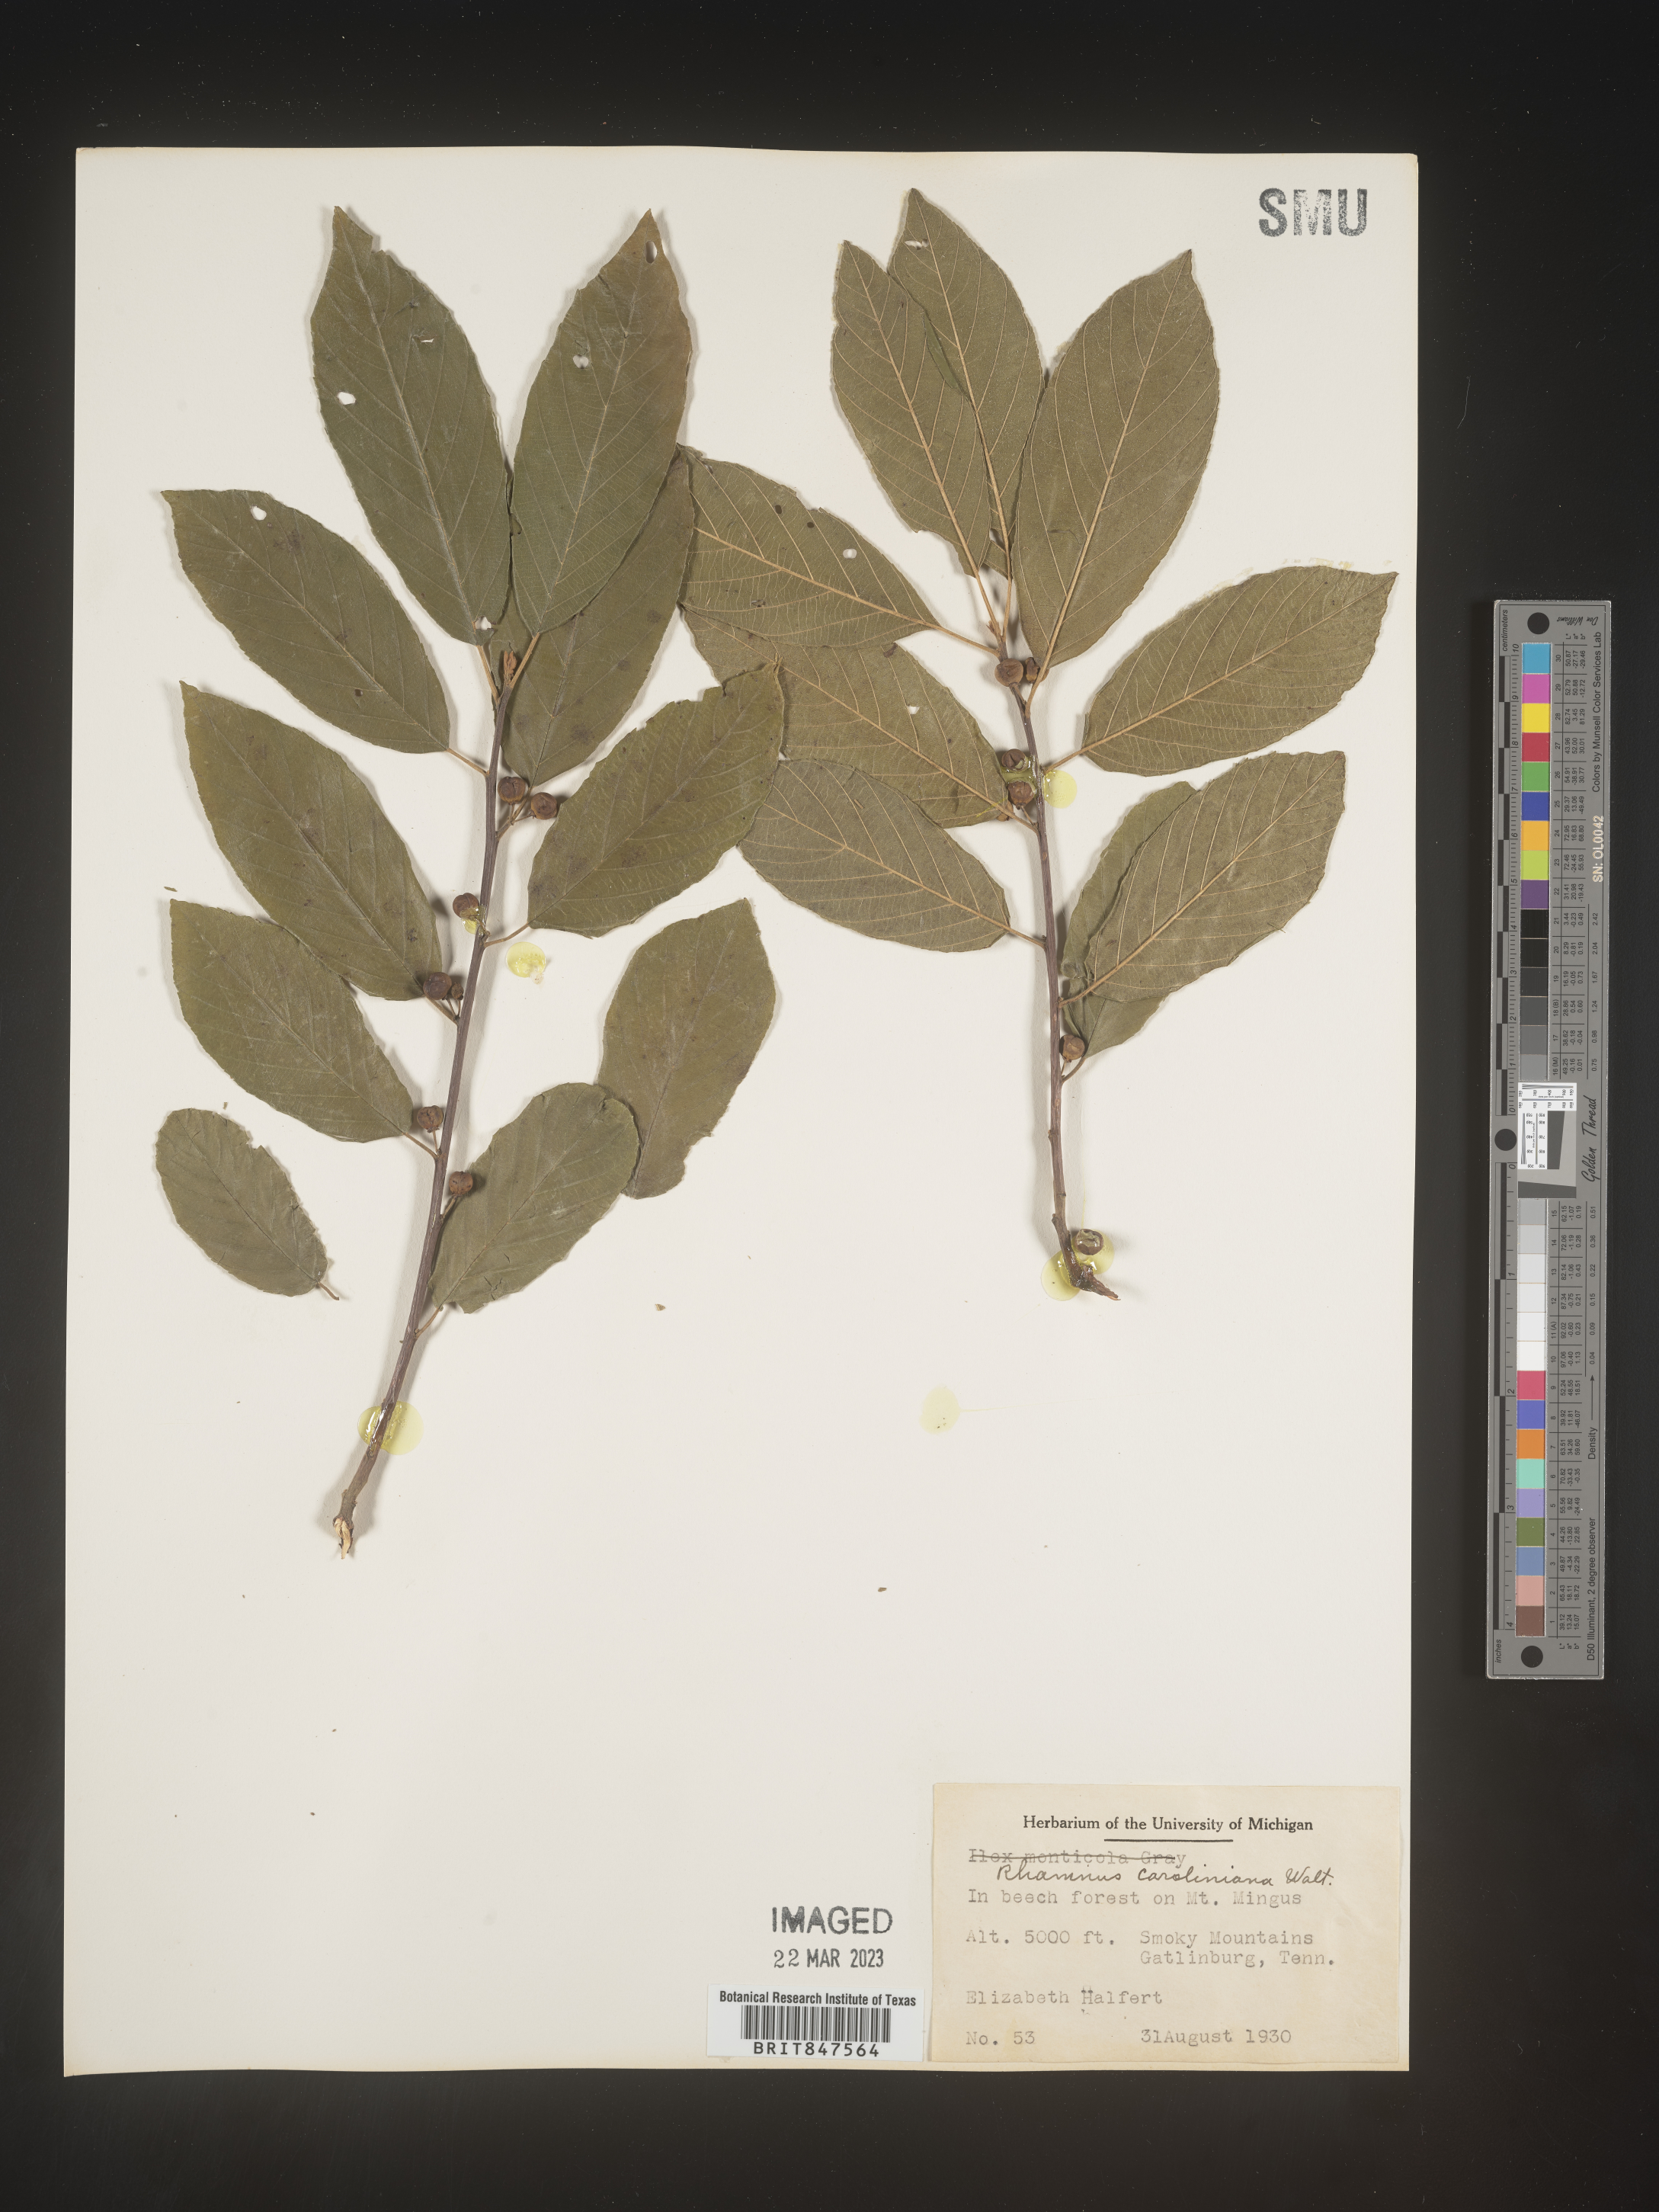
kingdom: Plantae
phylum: Tracheophyta
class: Magnoliopsida
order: Rosales
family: Rhamnaceae
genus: Frangula
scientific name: Frangula caroliniana
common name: Carolina buckthorn
